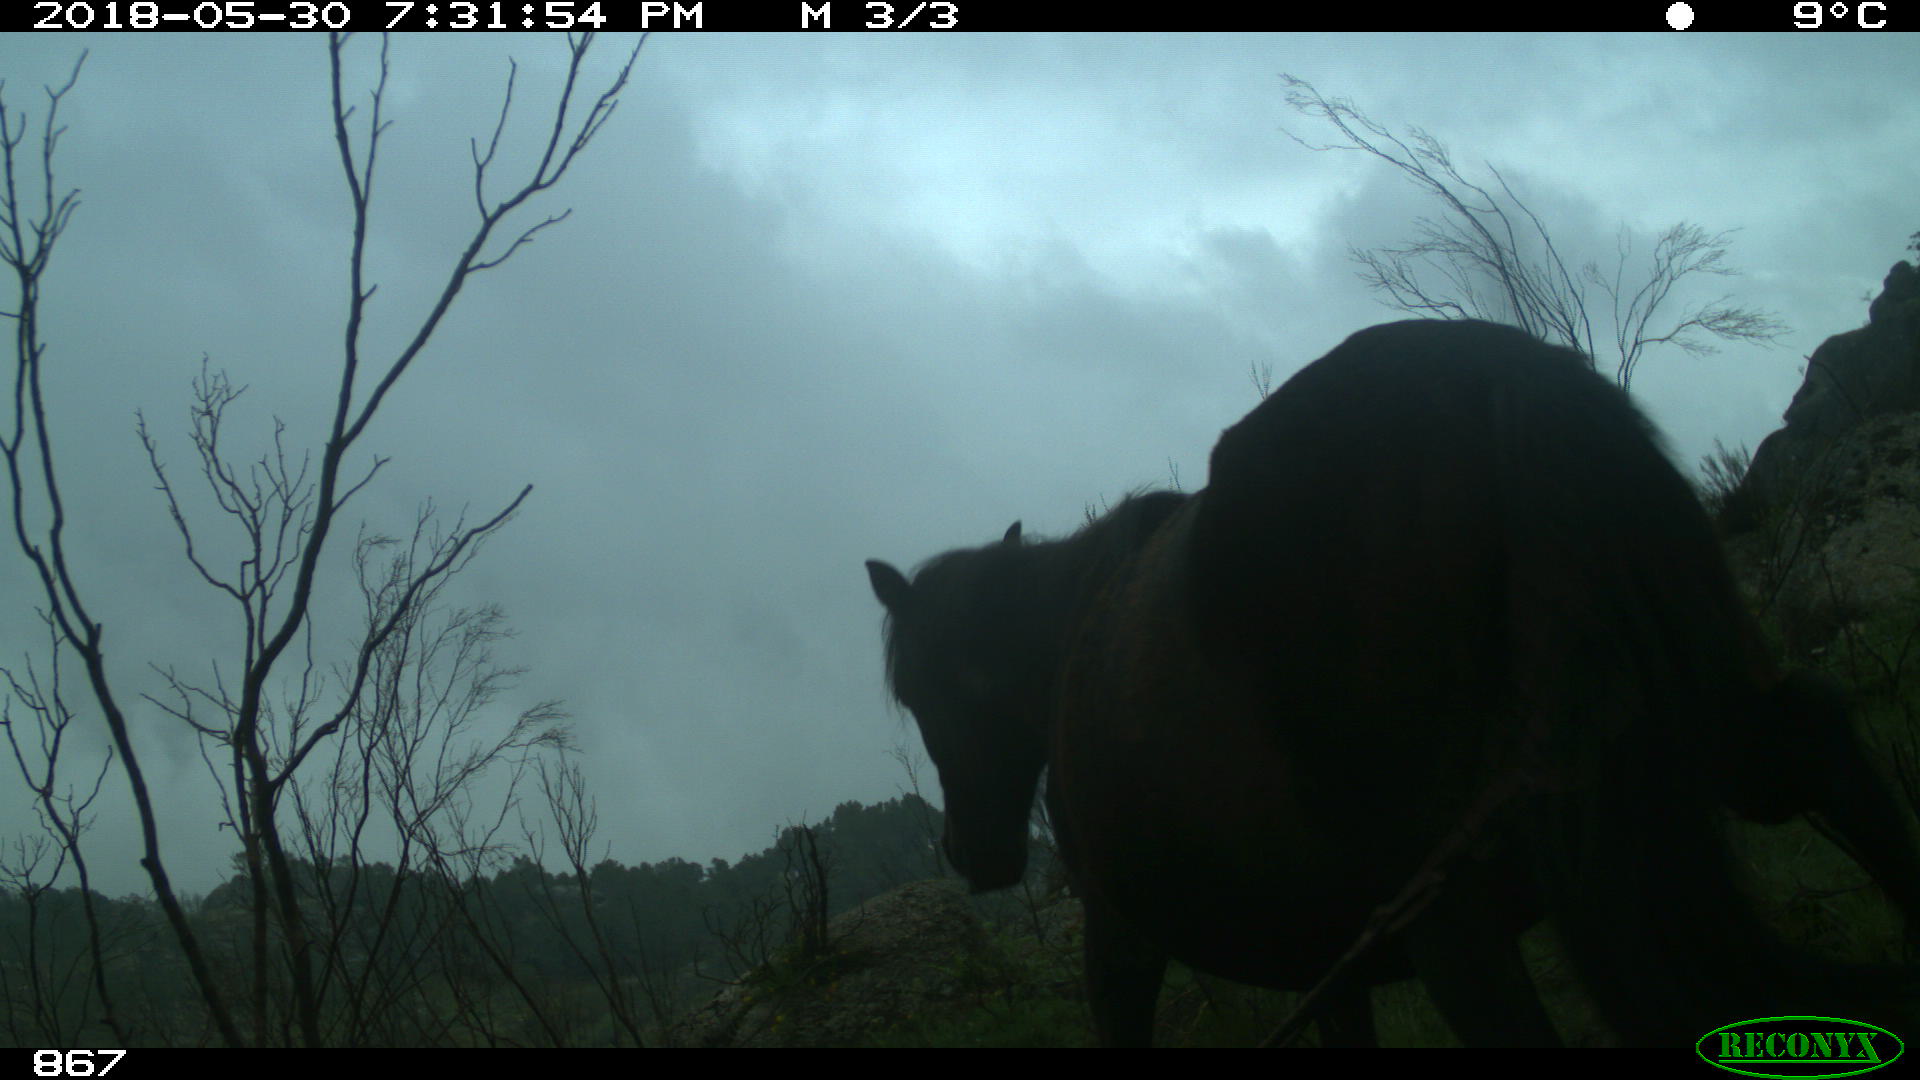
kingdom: Animalia
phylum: Chordata
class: Mammalia
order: Perissodactyla
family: Equidae
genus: Equus
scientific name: Equus caballus
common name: Horse
